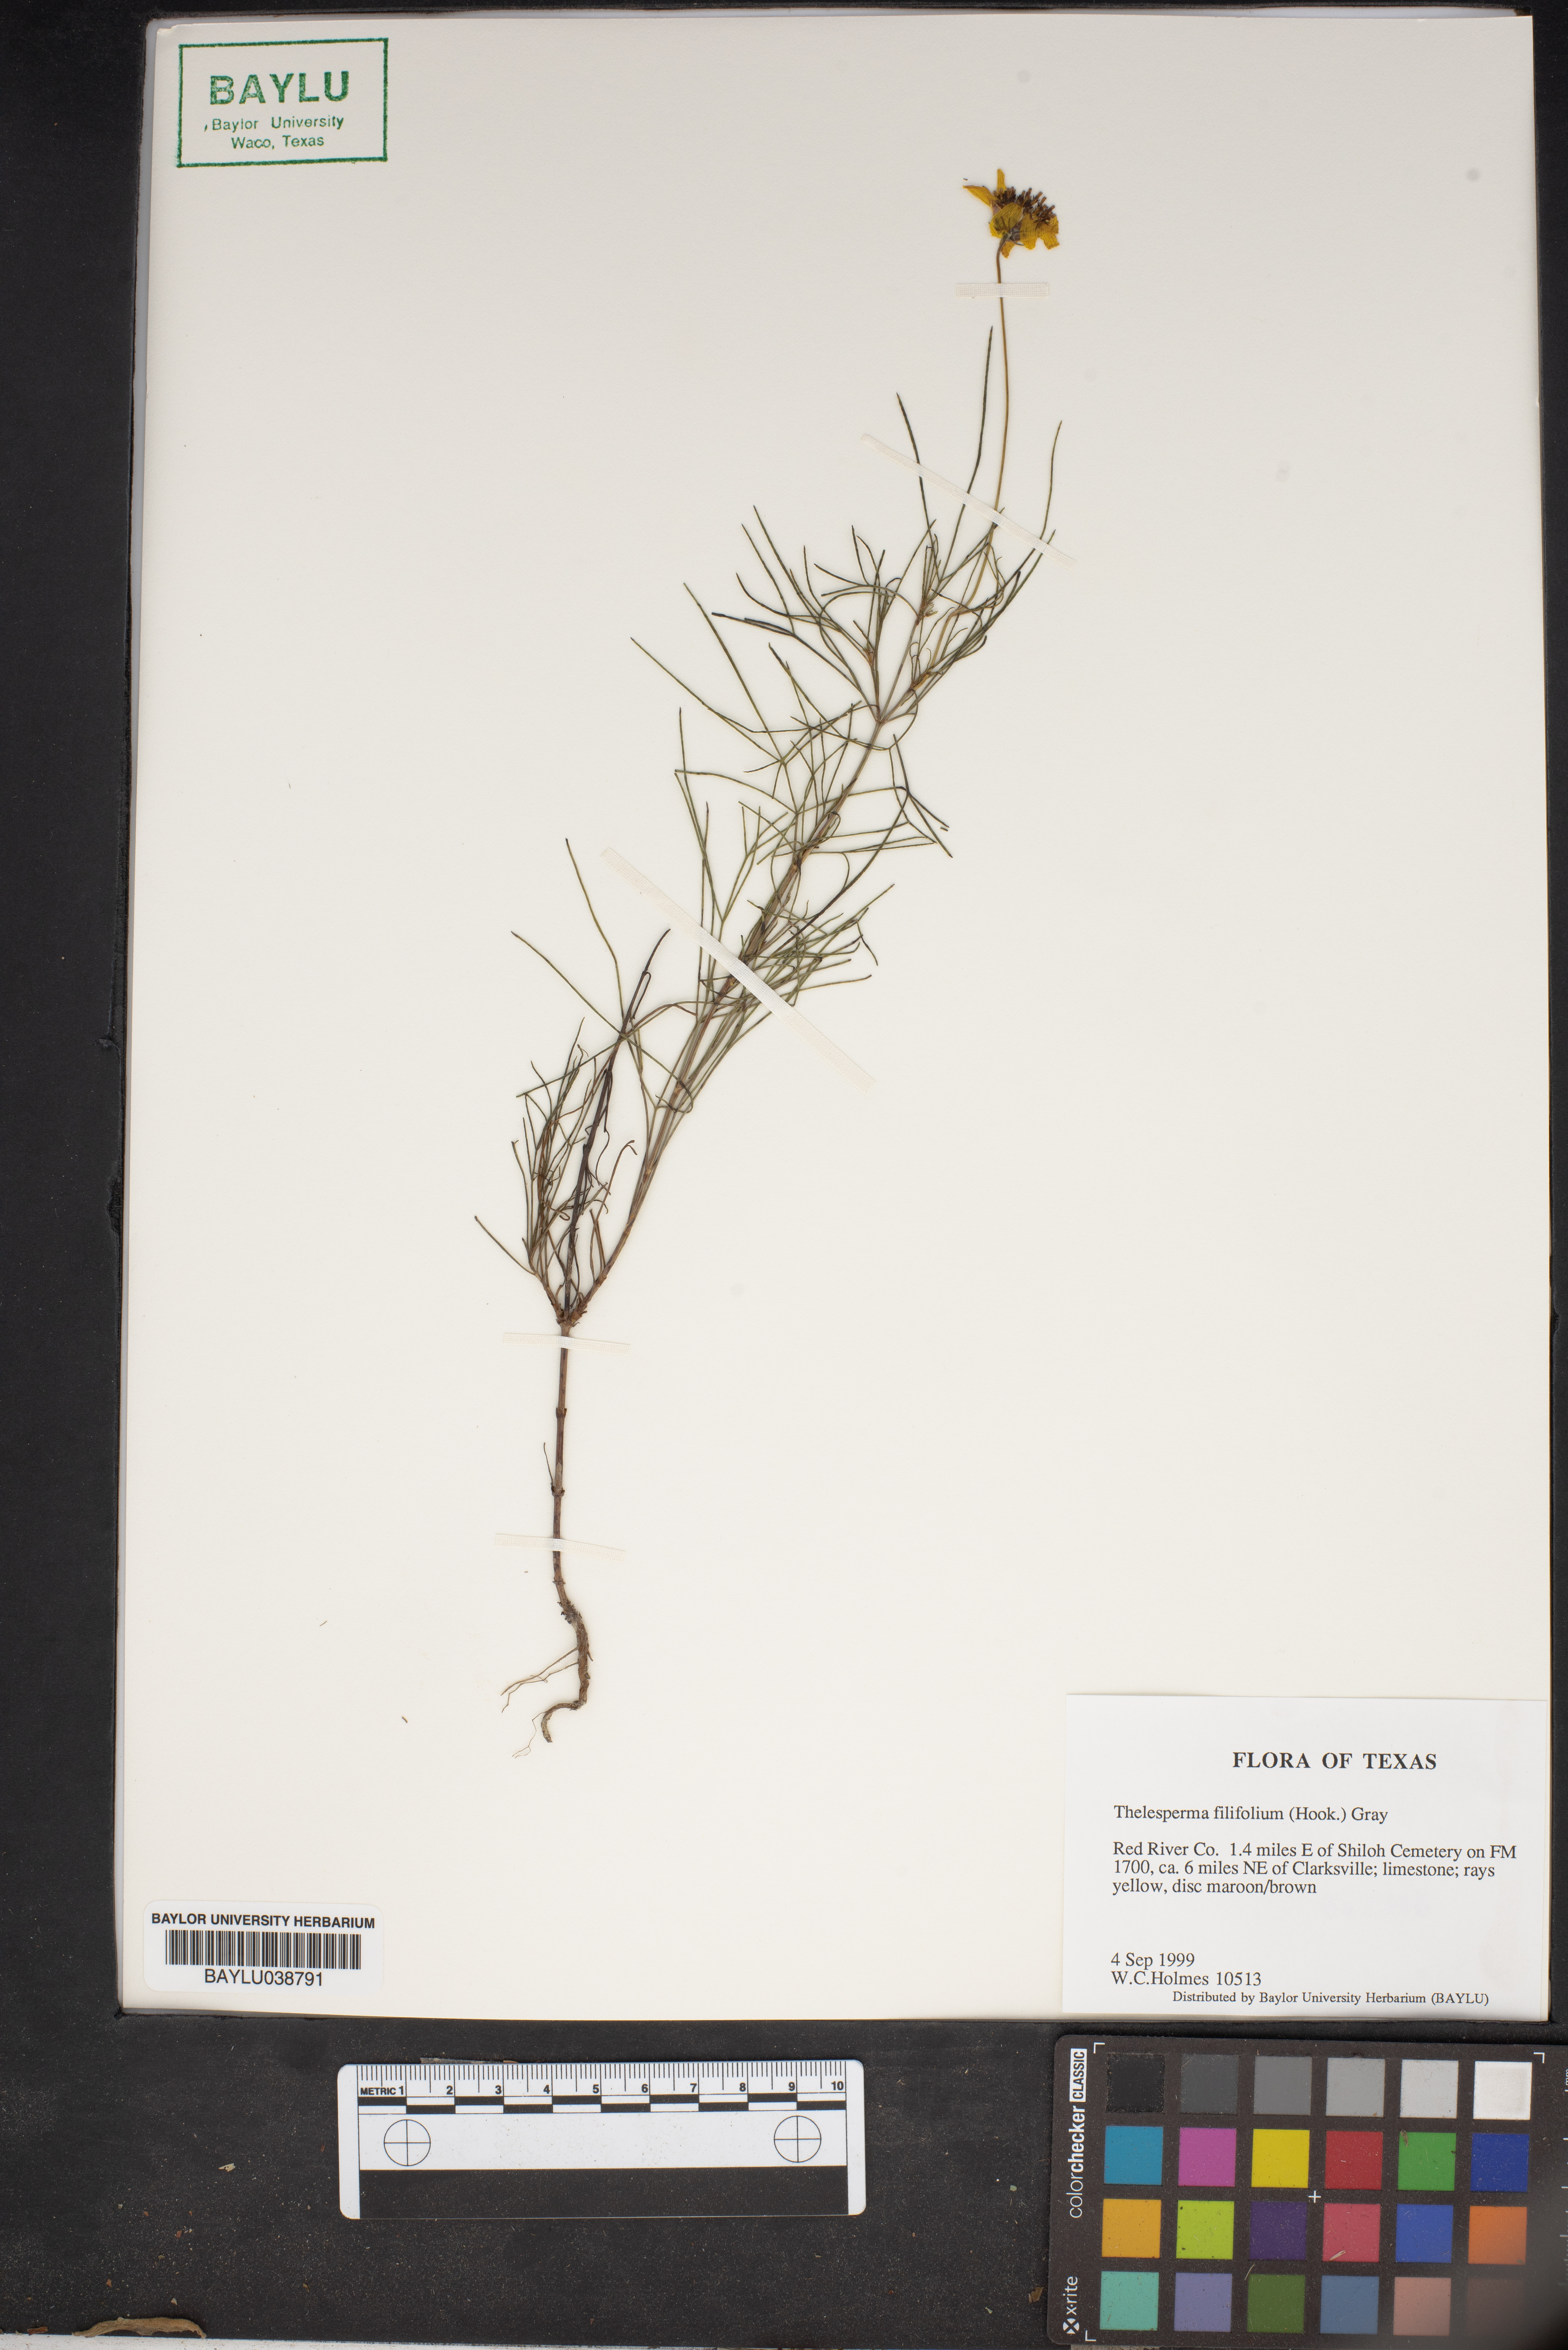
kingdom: Plantae
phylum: Tracheophyta
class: Magnoliopsida
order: Asterales
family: Asteraceae
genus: Thelesperma
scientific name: Thelesperma filifolium
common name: Stiff greenthread
